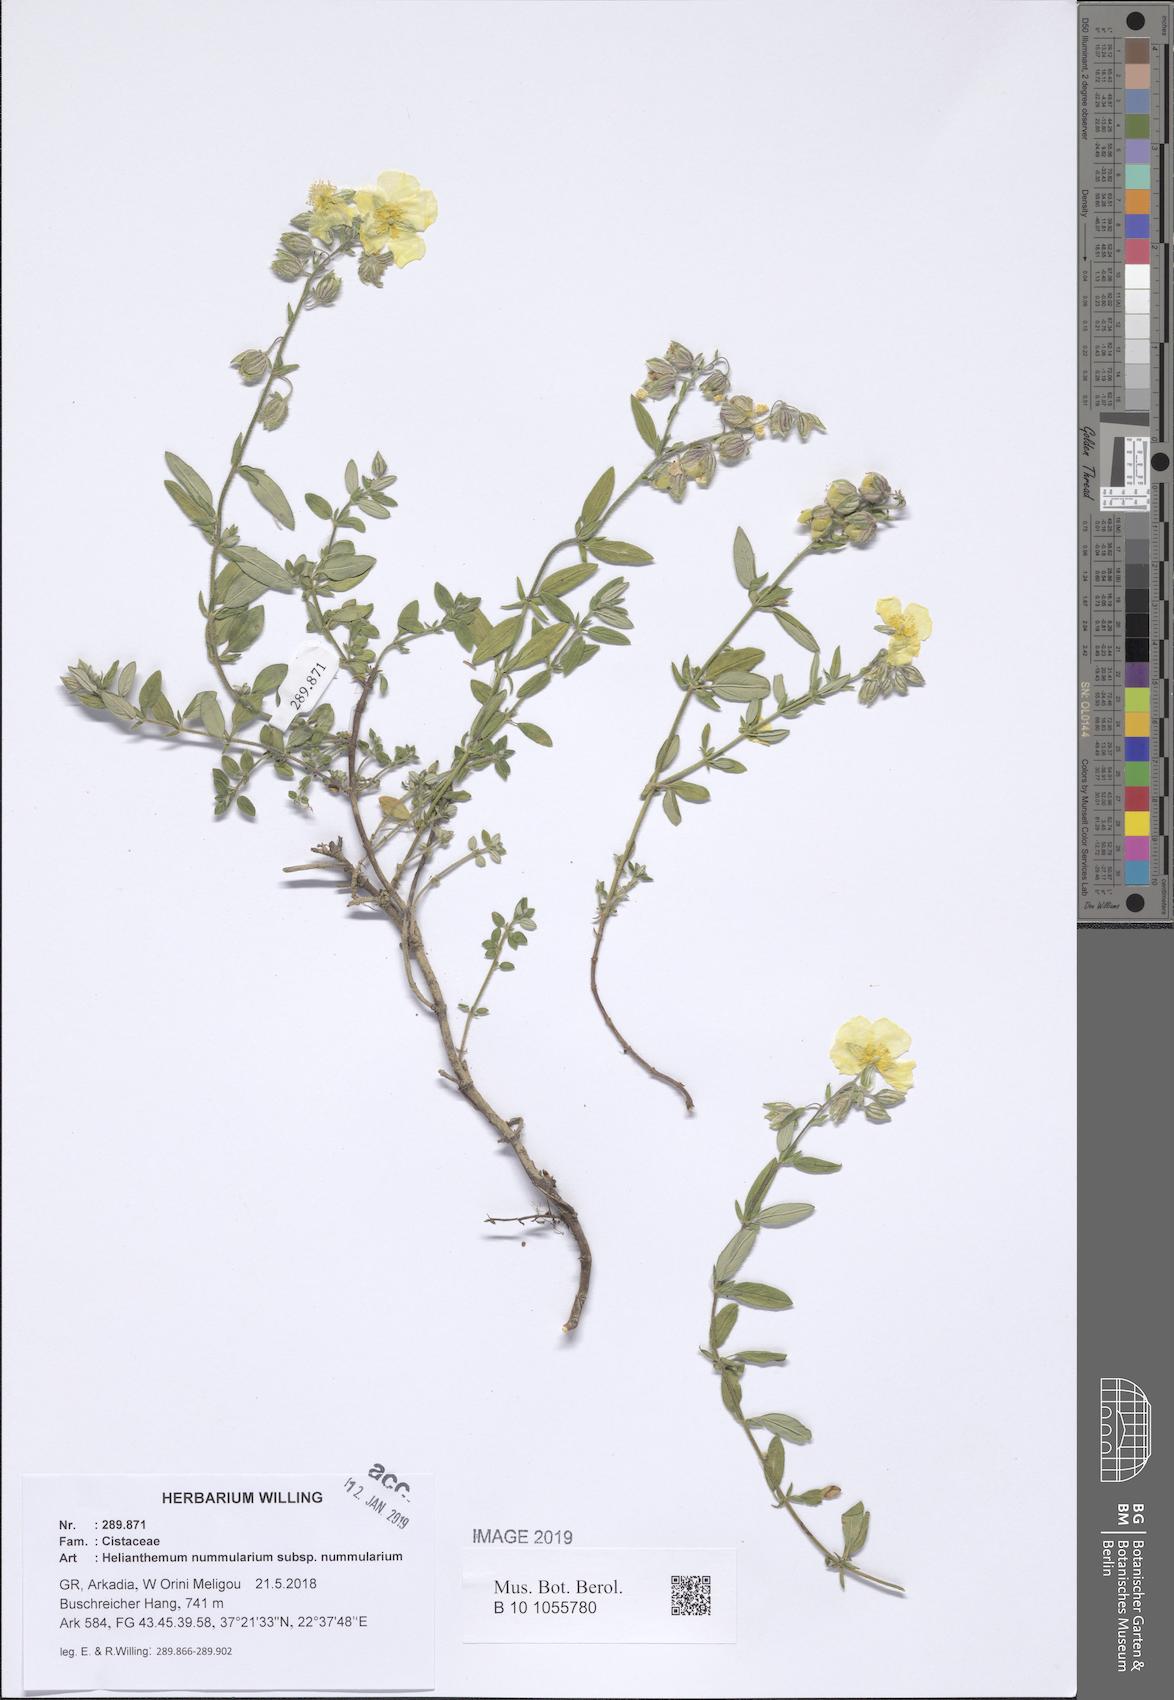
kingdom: Plantae
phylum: Tracheophyta
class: Magnoliopsida
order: Malvales
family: Cistaceae
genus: Helianthemum
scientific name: Helianthemum nummularium
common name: Common rock-rose
